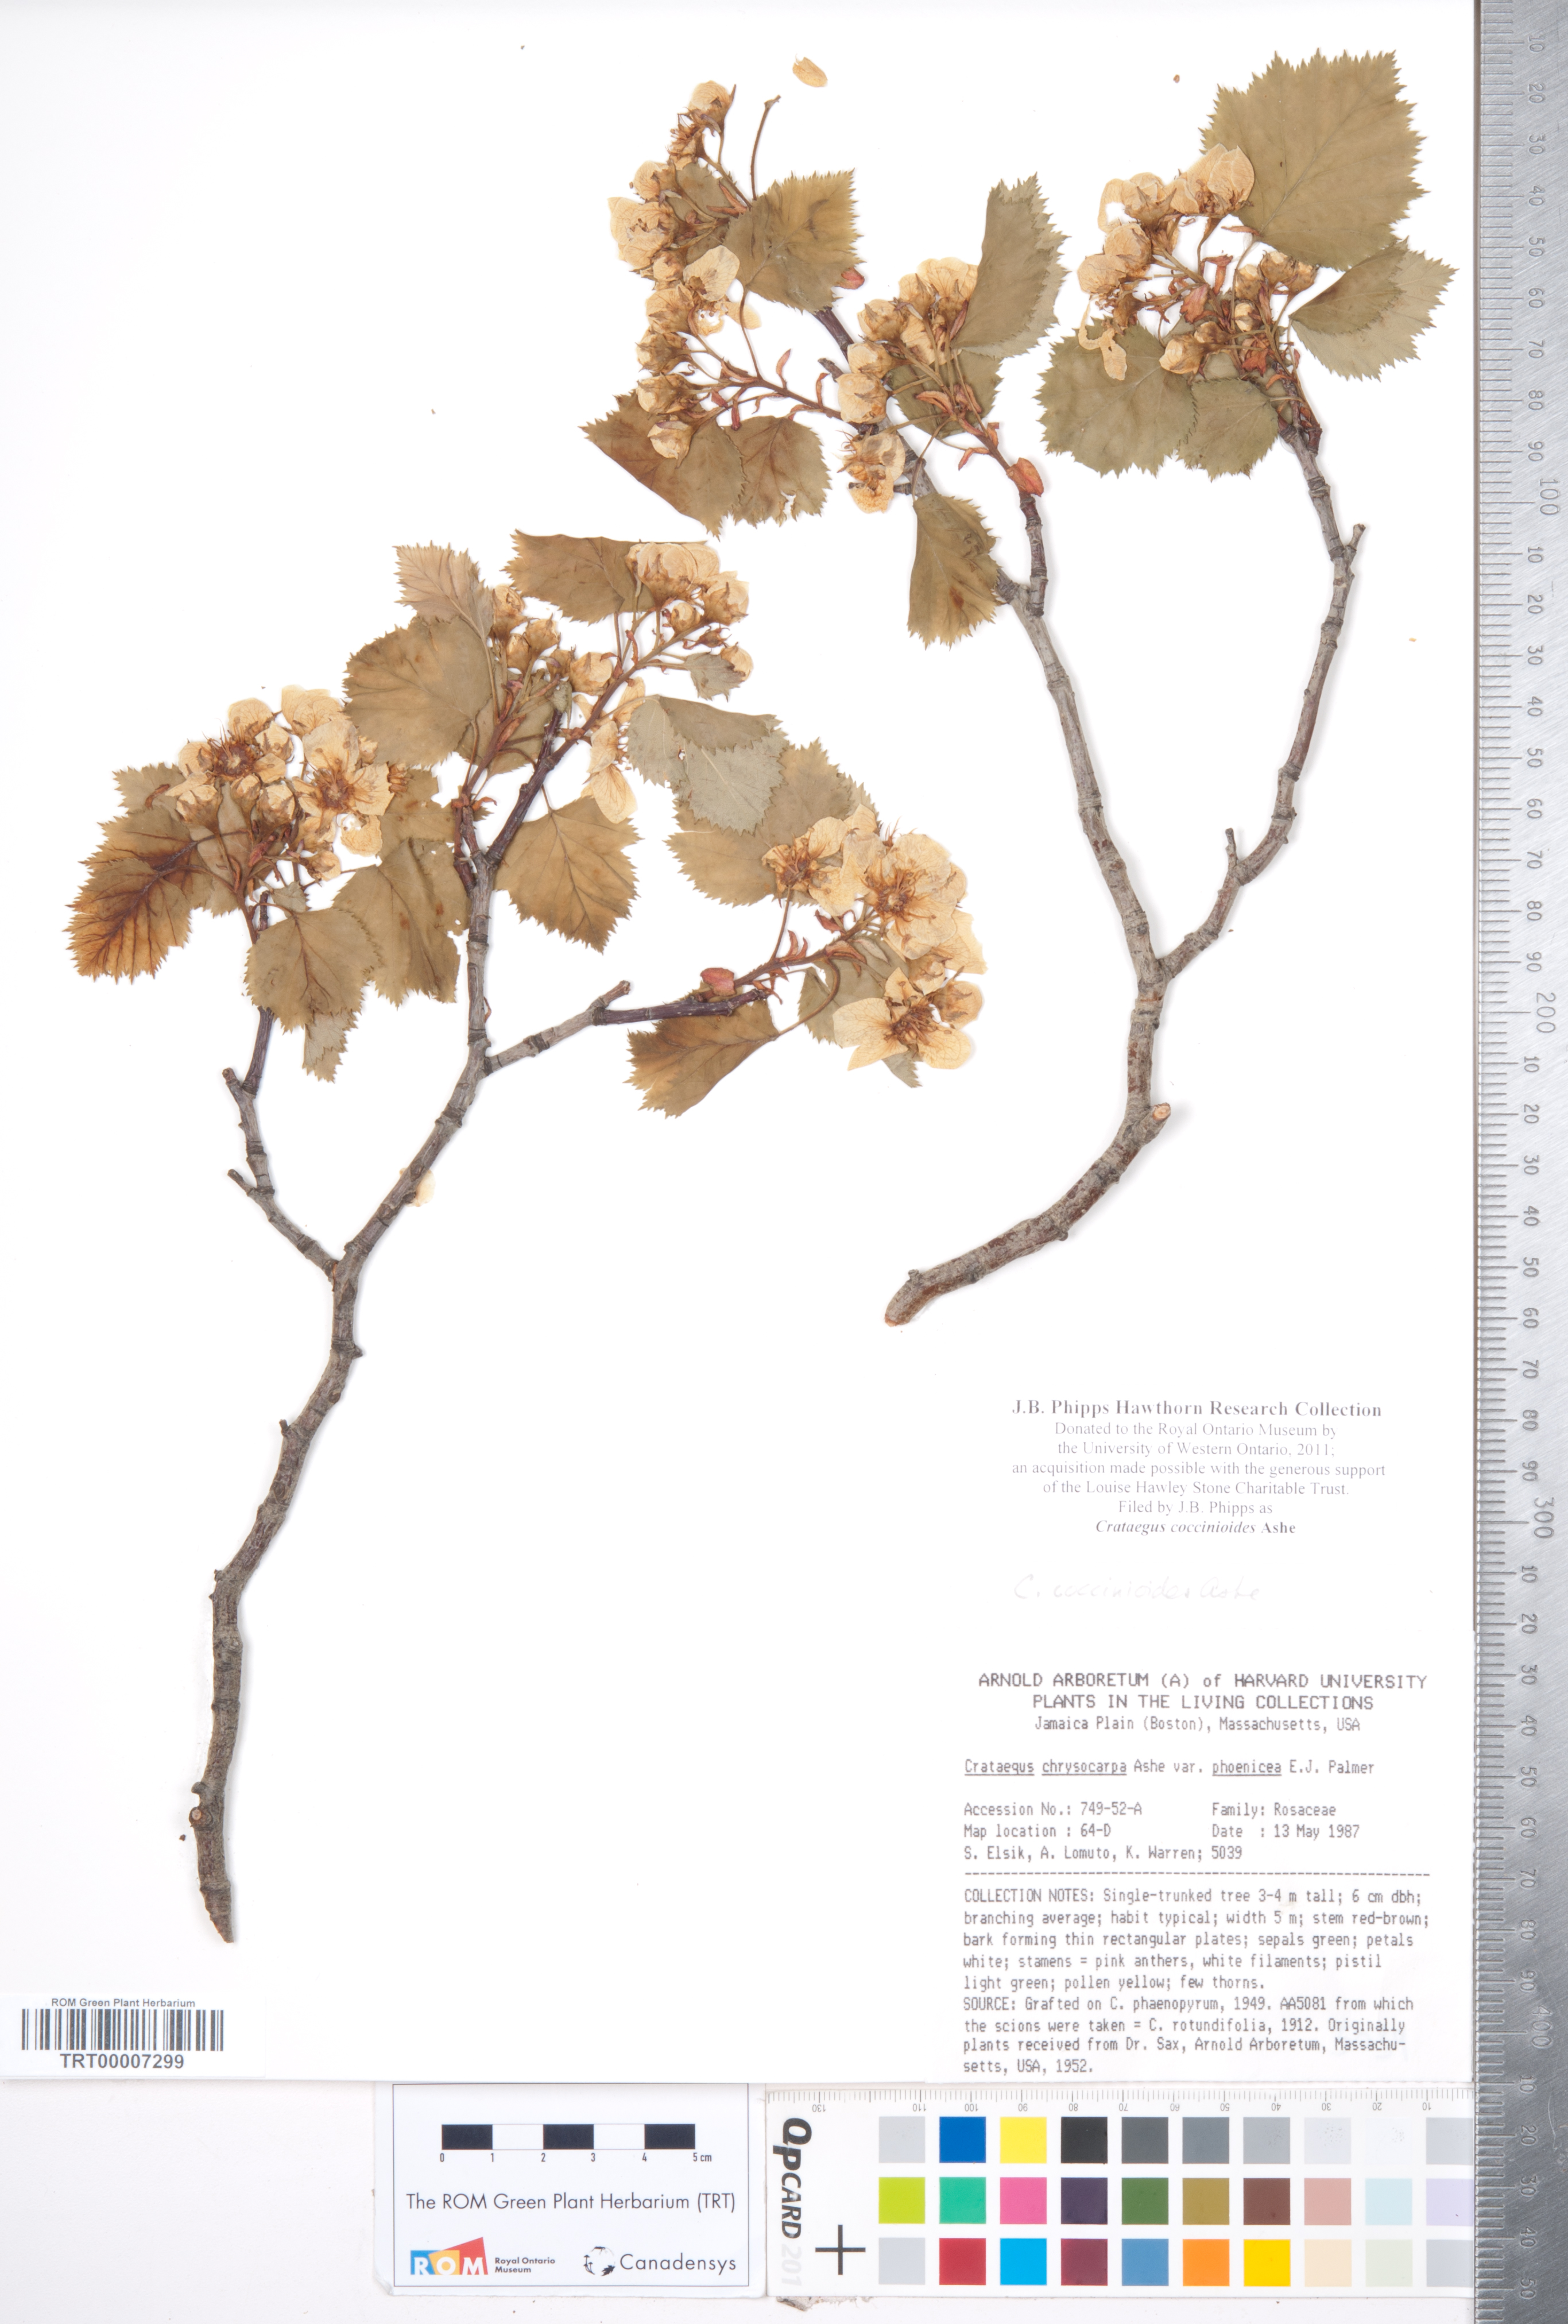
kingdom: Plantae
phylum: Tracheophyta
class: Magnoliopsida
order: Rosales
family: Rosaceae
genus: Crataegus
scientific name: Crataegus coccinioides
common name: Large-flowered cockspurthorn
